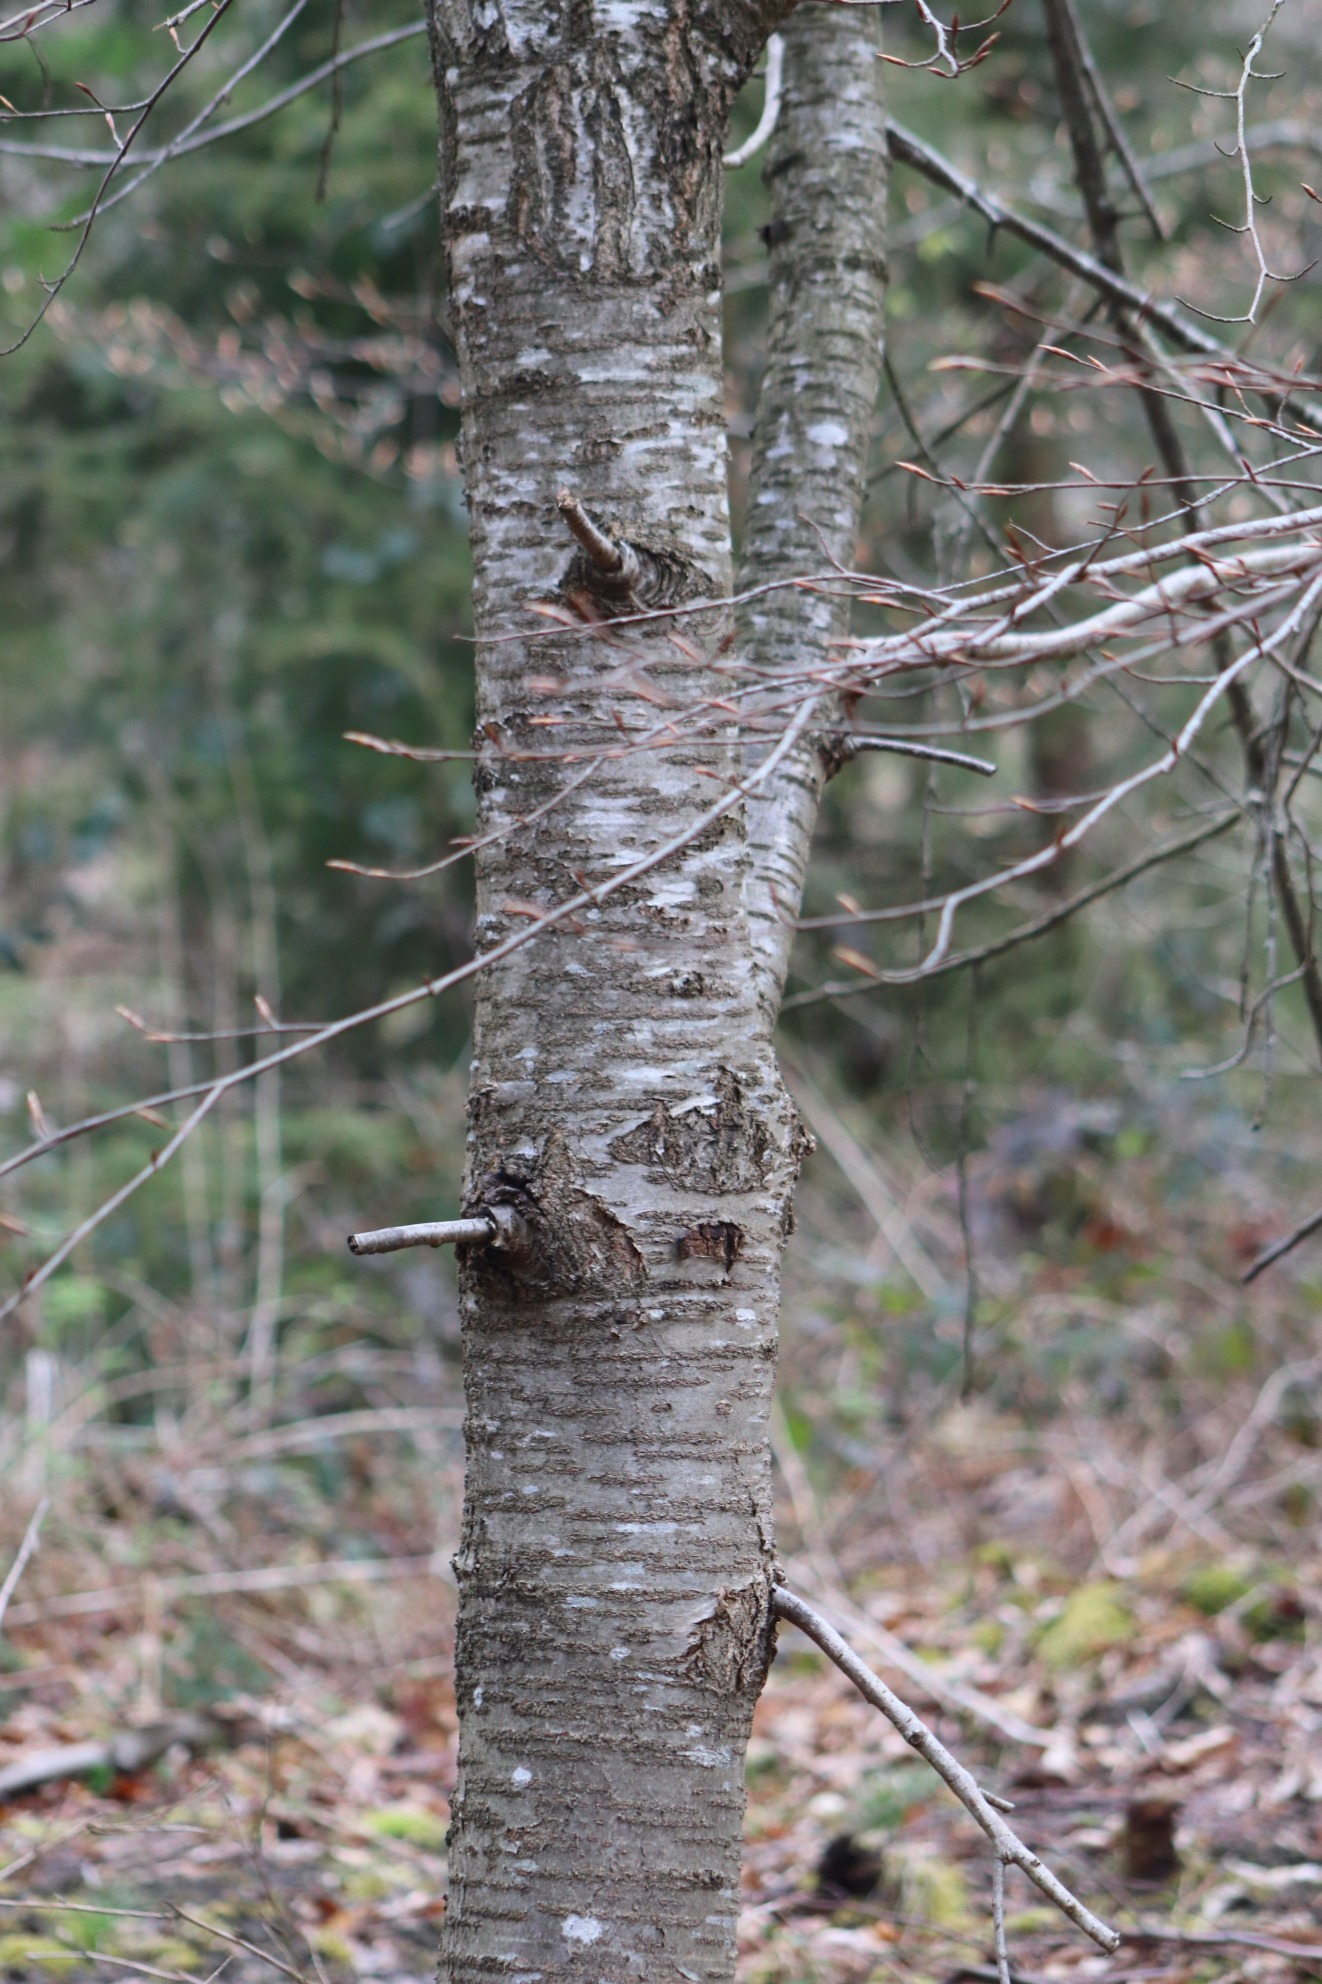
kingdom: Plantae
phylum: Tracheophyta
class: Magnoliopsida
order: Rosales
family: Rosaceae
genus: Prunus
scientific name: Prunus avium
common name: Fugle-kirsebær
